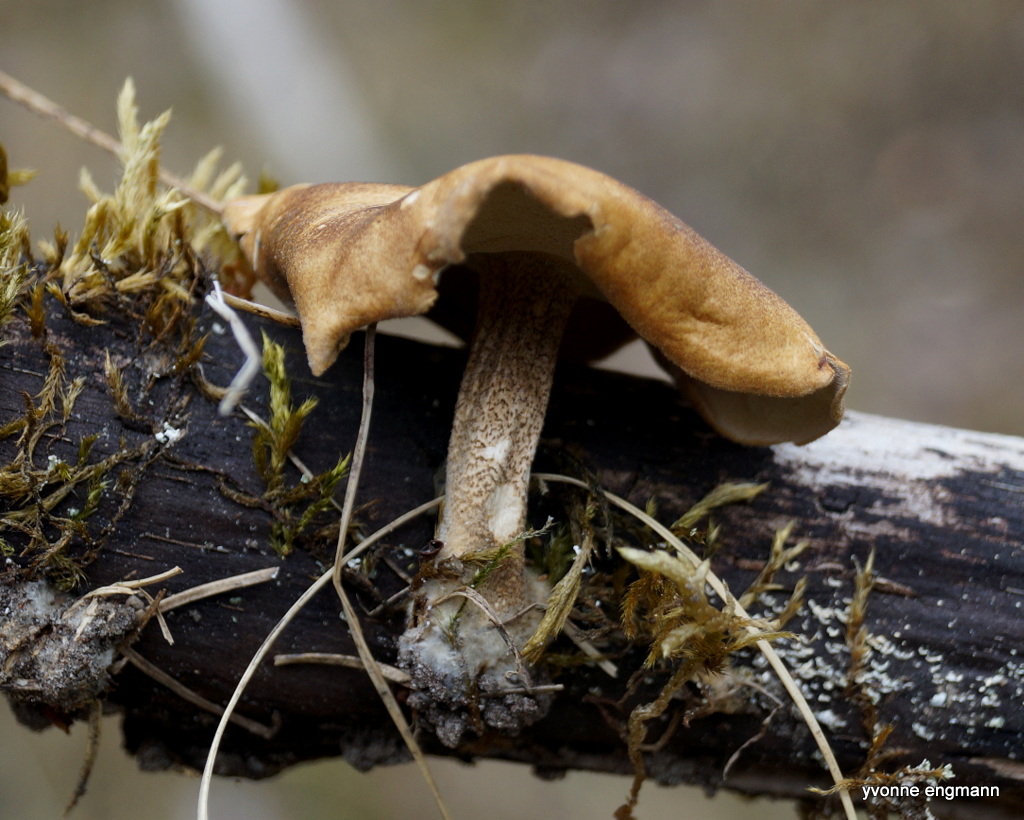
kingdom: Fungi
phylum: Basidiomycota
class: Agaricomycetes
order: Polyporales
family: Polyporaceae
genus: Lentinus
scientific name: Lentinus substrictus
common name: forårs-stilkporesvamp
